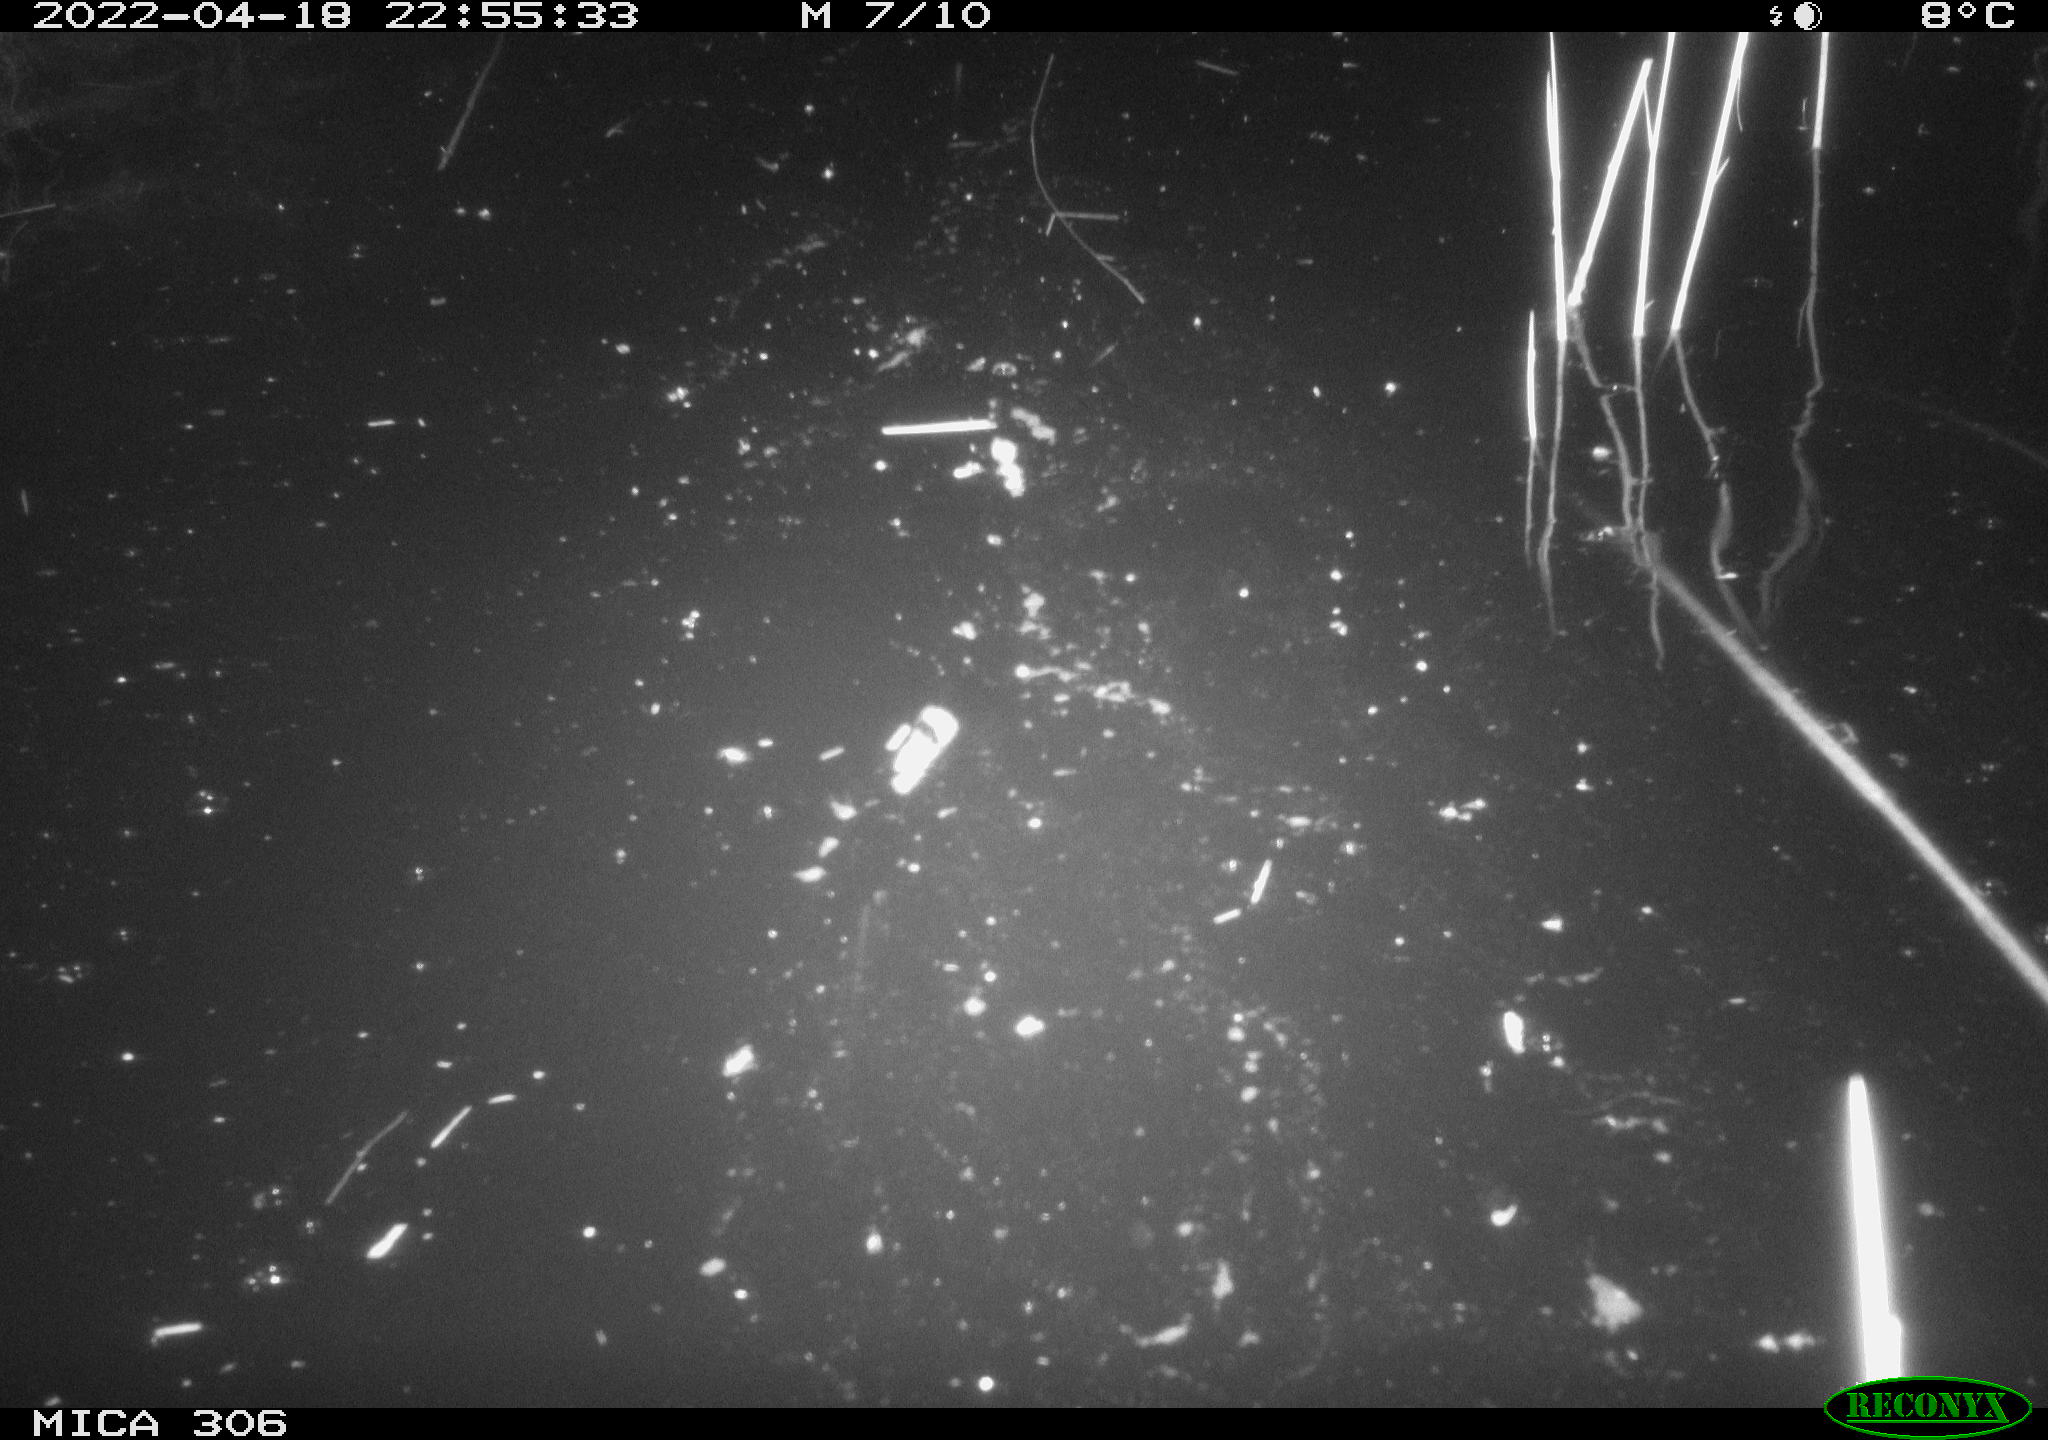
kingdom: Animalia
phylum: Chordata
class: Mammalia
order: Rodentia
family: Cricetidae
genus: Ondatra
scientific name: Ondatra zibethicus
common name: Muskrat
